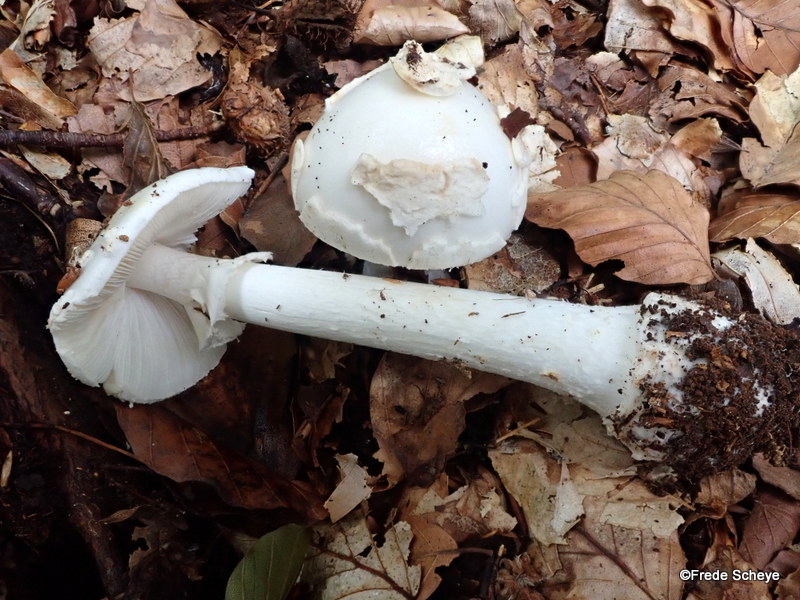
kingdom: Fungi
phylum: Basidiomycota
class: Agaricomycetes
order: Agaricales
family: Amanitaceae
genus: Amanita
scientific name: Amanita citrina
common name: False death-cap
